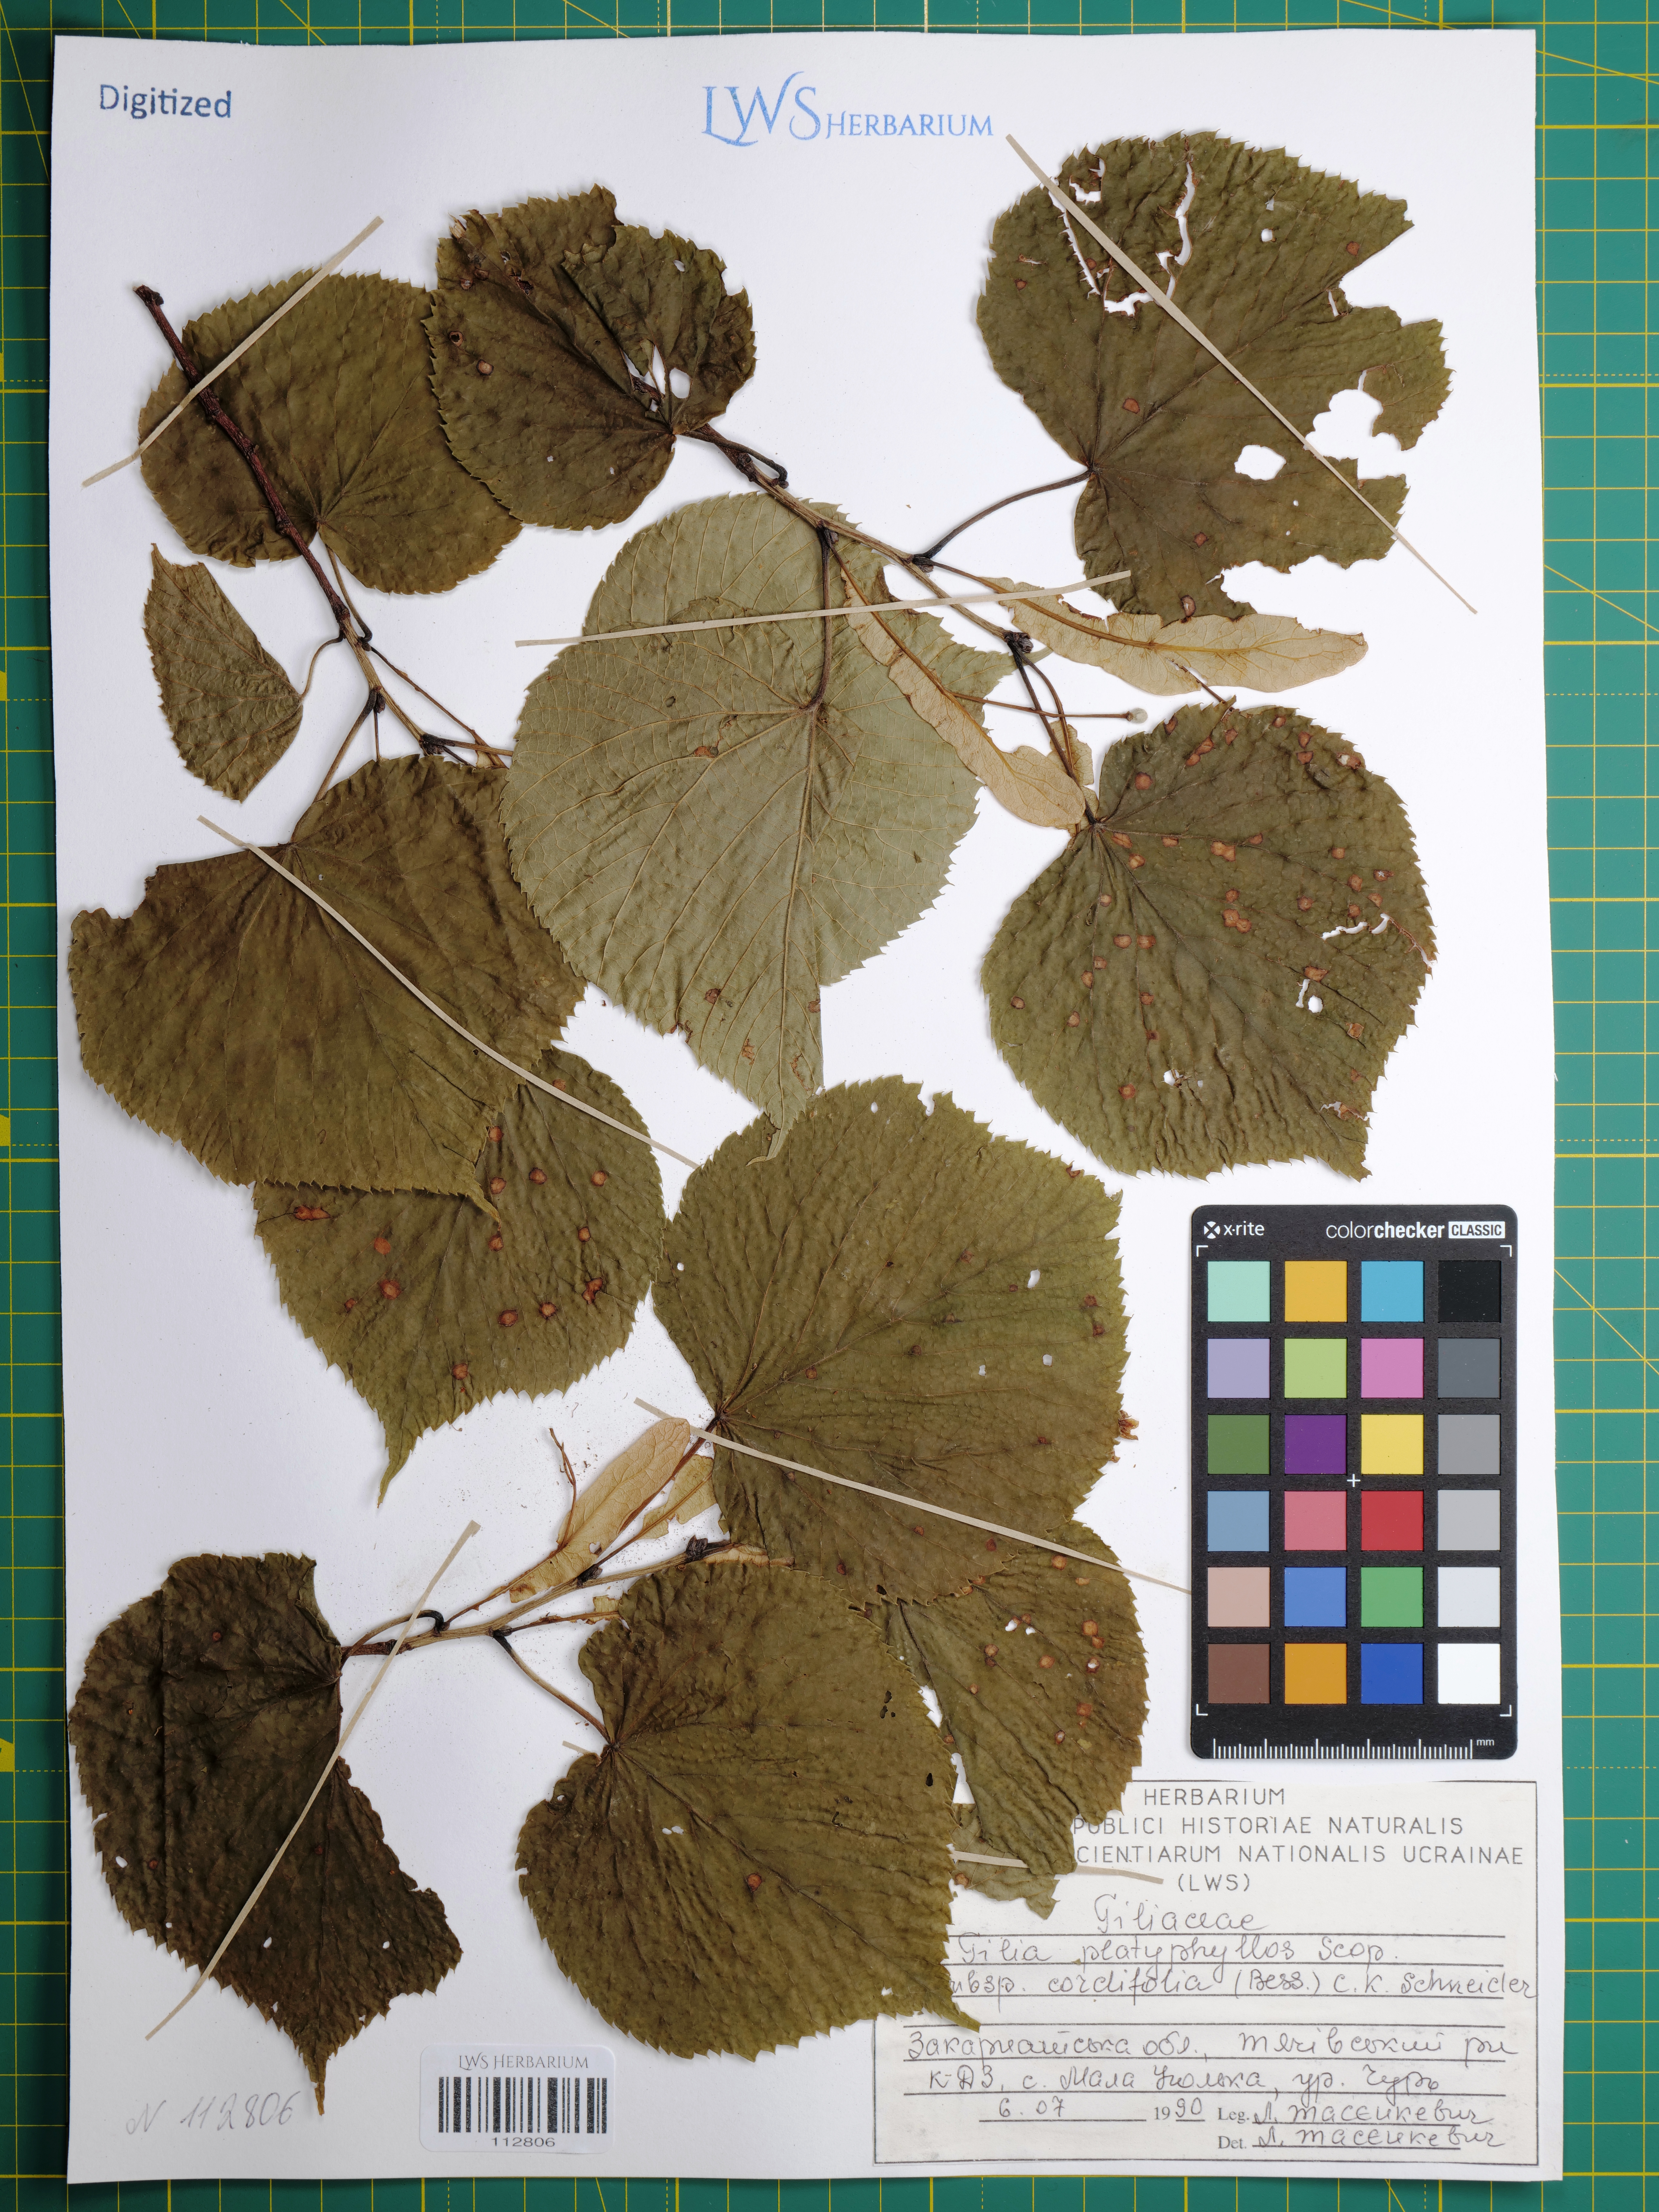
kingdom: Plantae
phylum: Tracheophyta
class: Magnoliopsida
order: Malvales
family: Malvaceae
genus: Tilia
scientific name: Tilia platyphyllos
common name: Large-leaved lime
